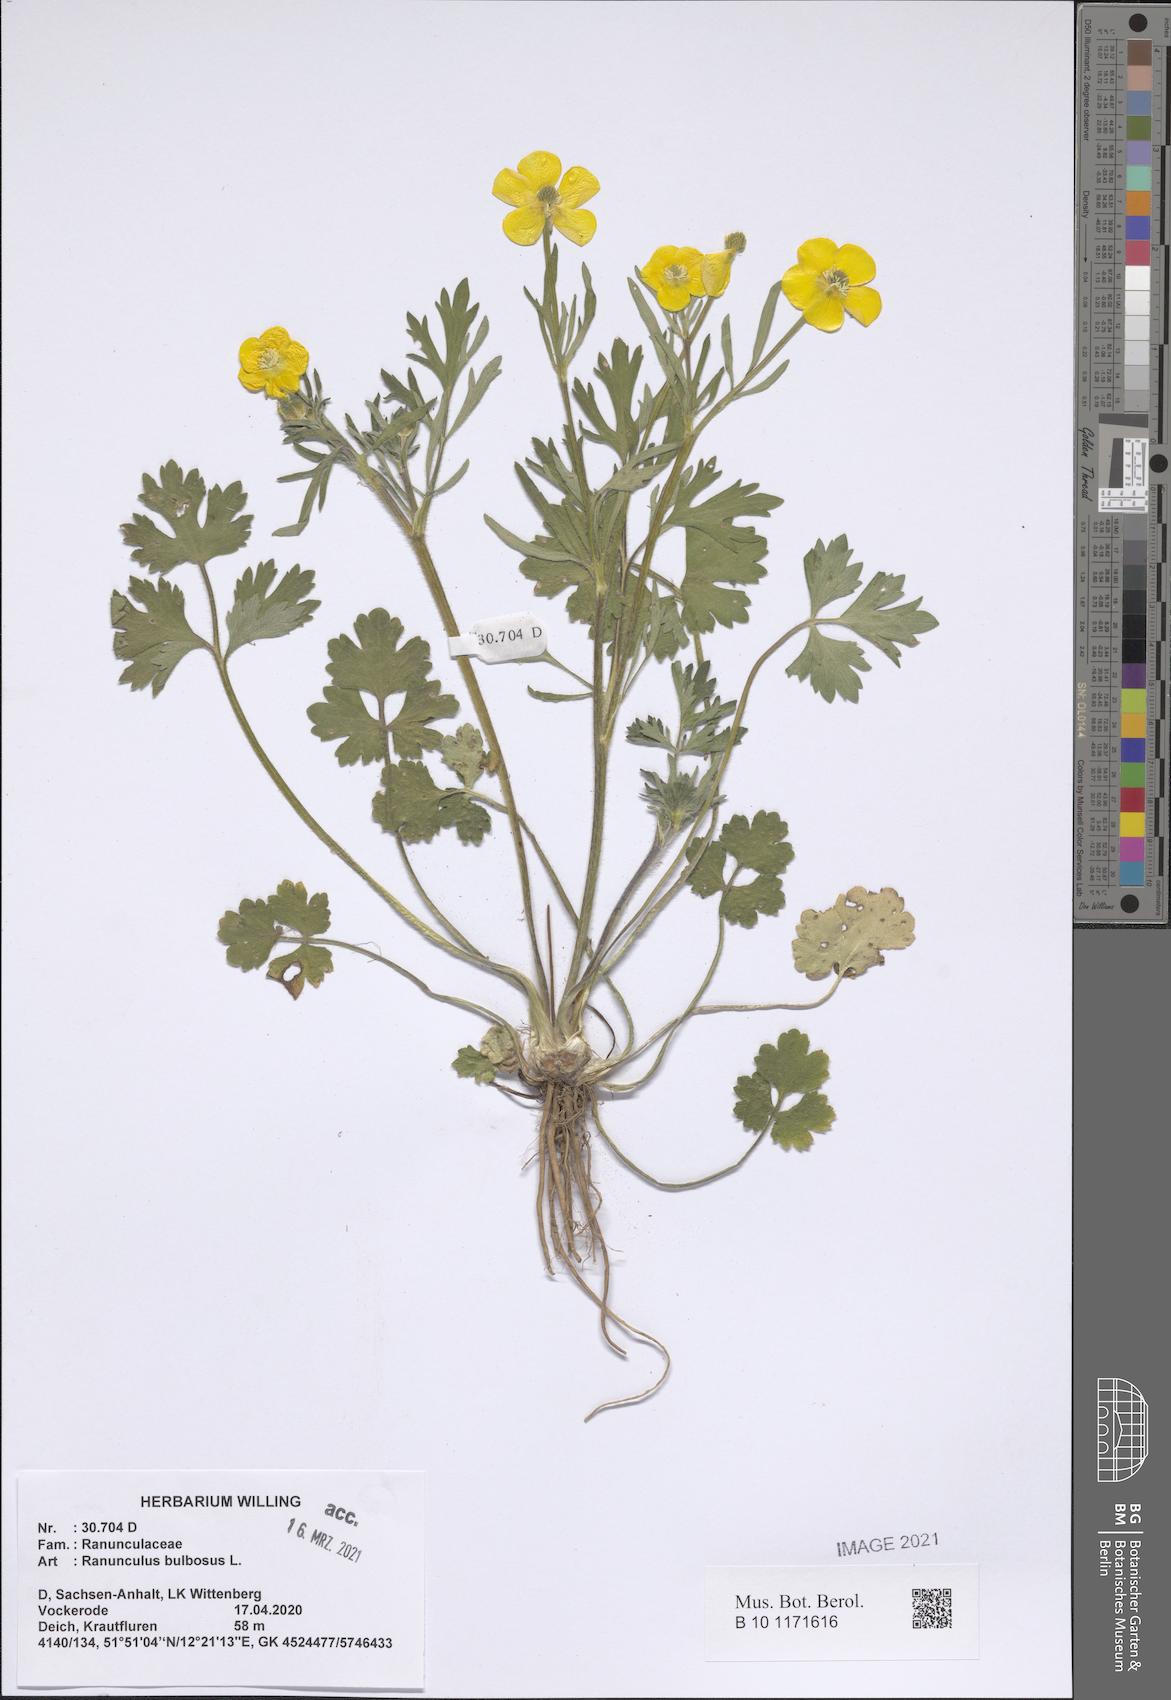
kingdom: Plantae
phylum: Tracheophyta
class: Magnoliopsida
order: Ranunculales
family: Ranunculaceae
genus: Ranunculus
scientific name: Ranunculus bulbosus
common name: Bulbous buttercup
